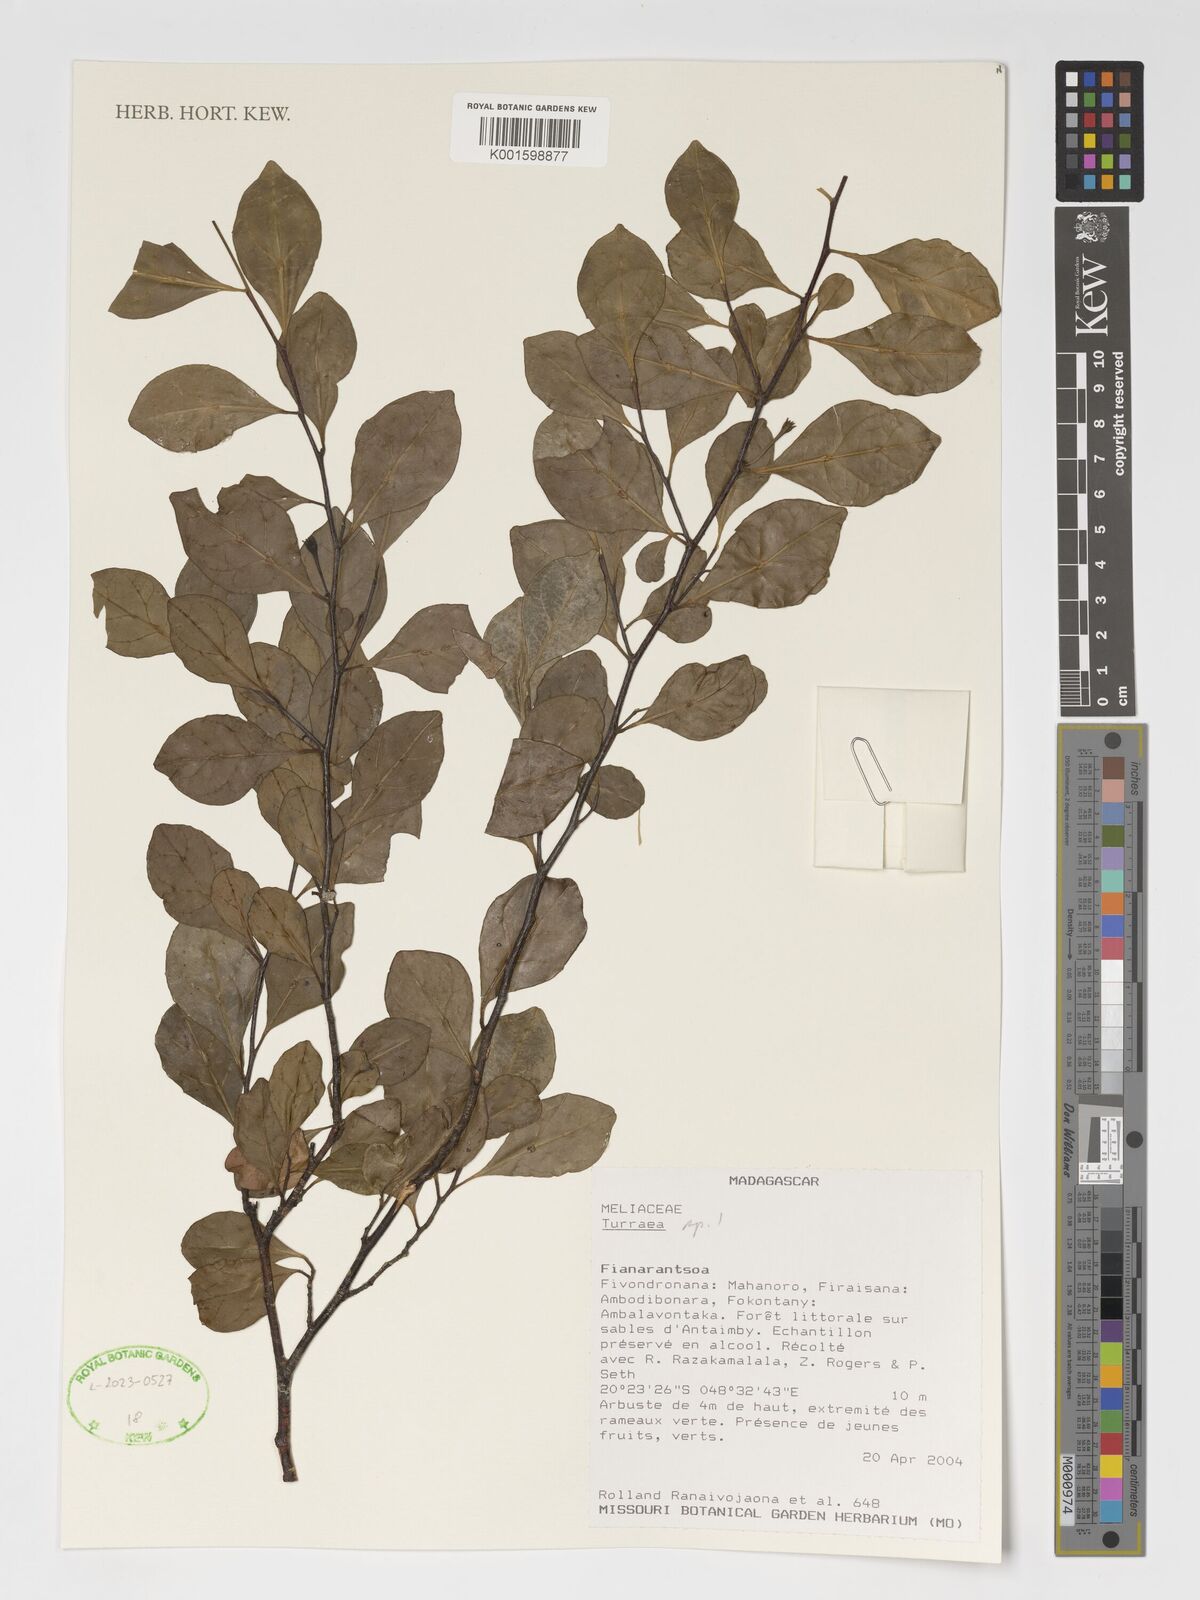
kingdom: Plantae
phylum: Tracheophyta
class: Magnoliopsida
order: Sapindales
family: Meliaceae
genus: Turraea
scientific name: Turraea
